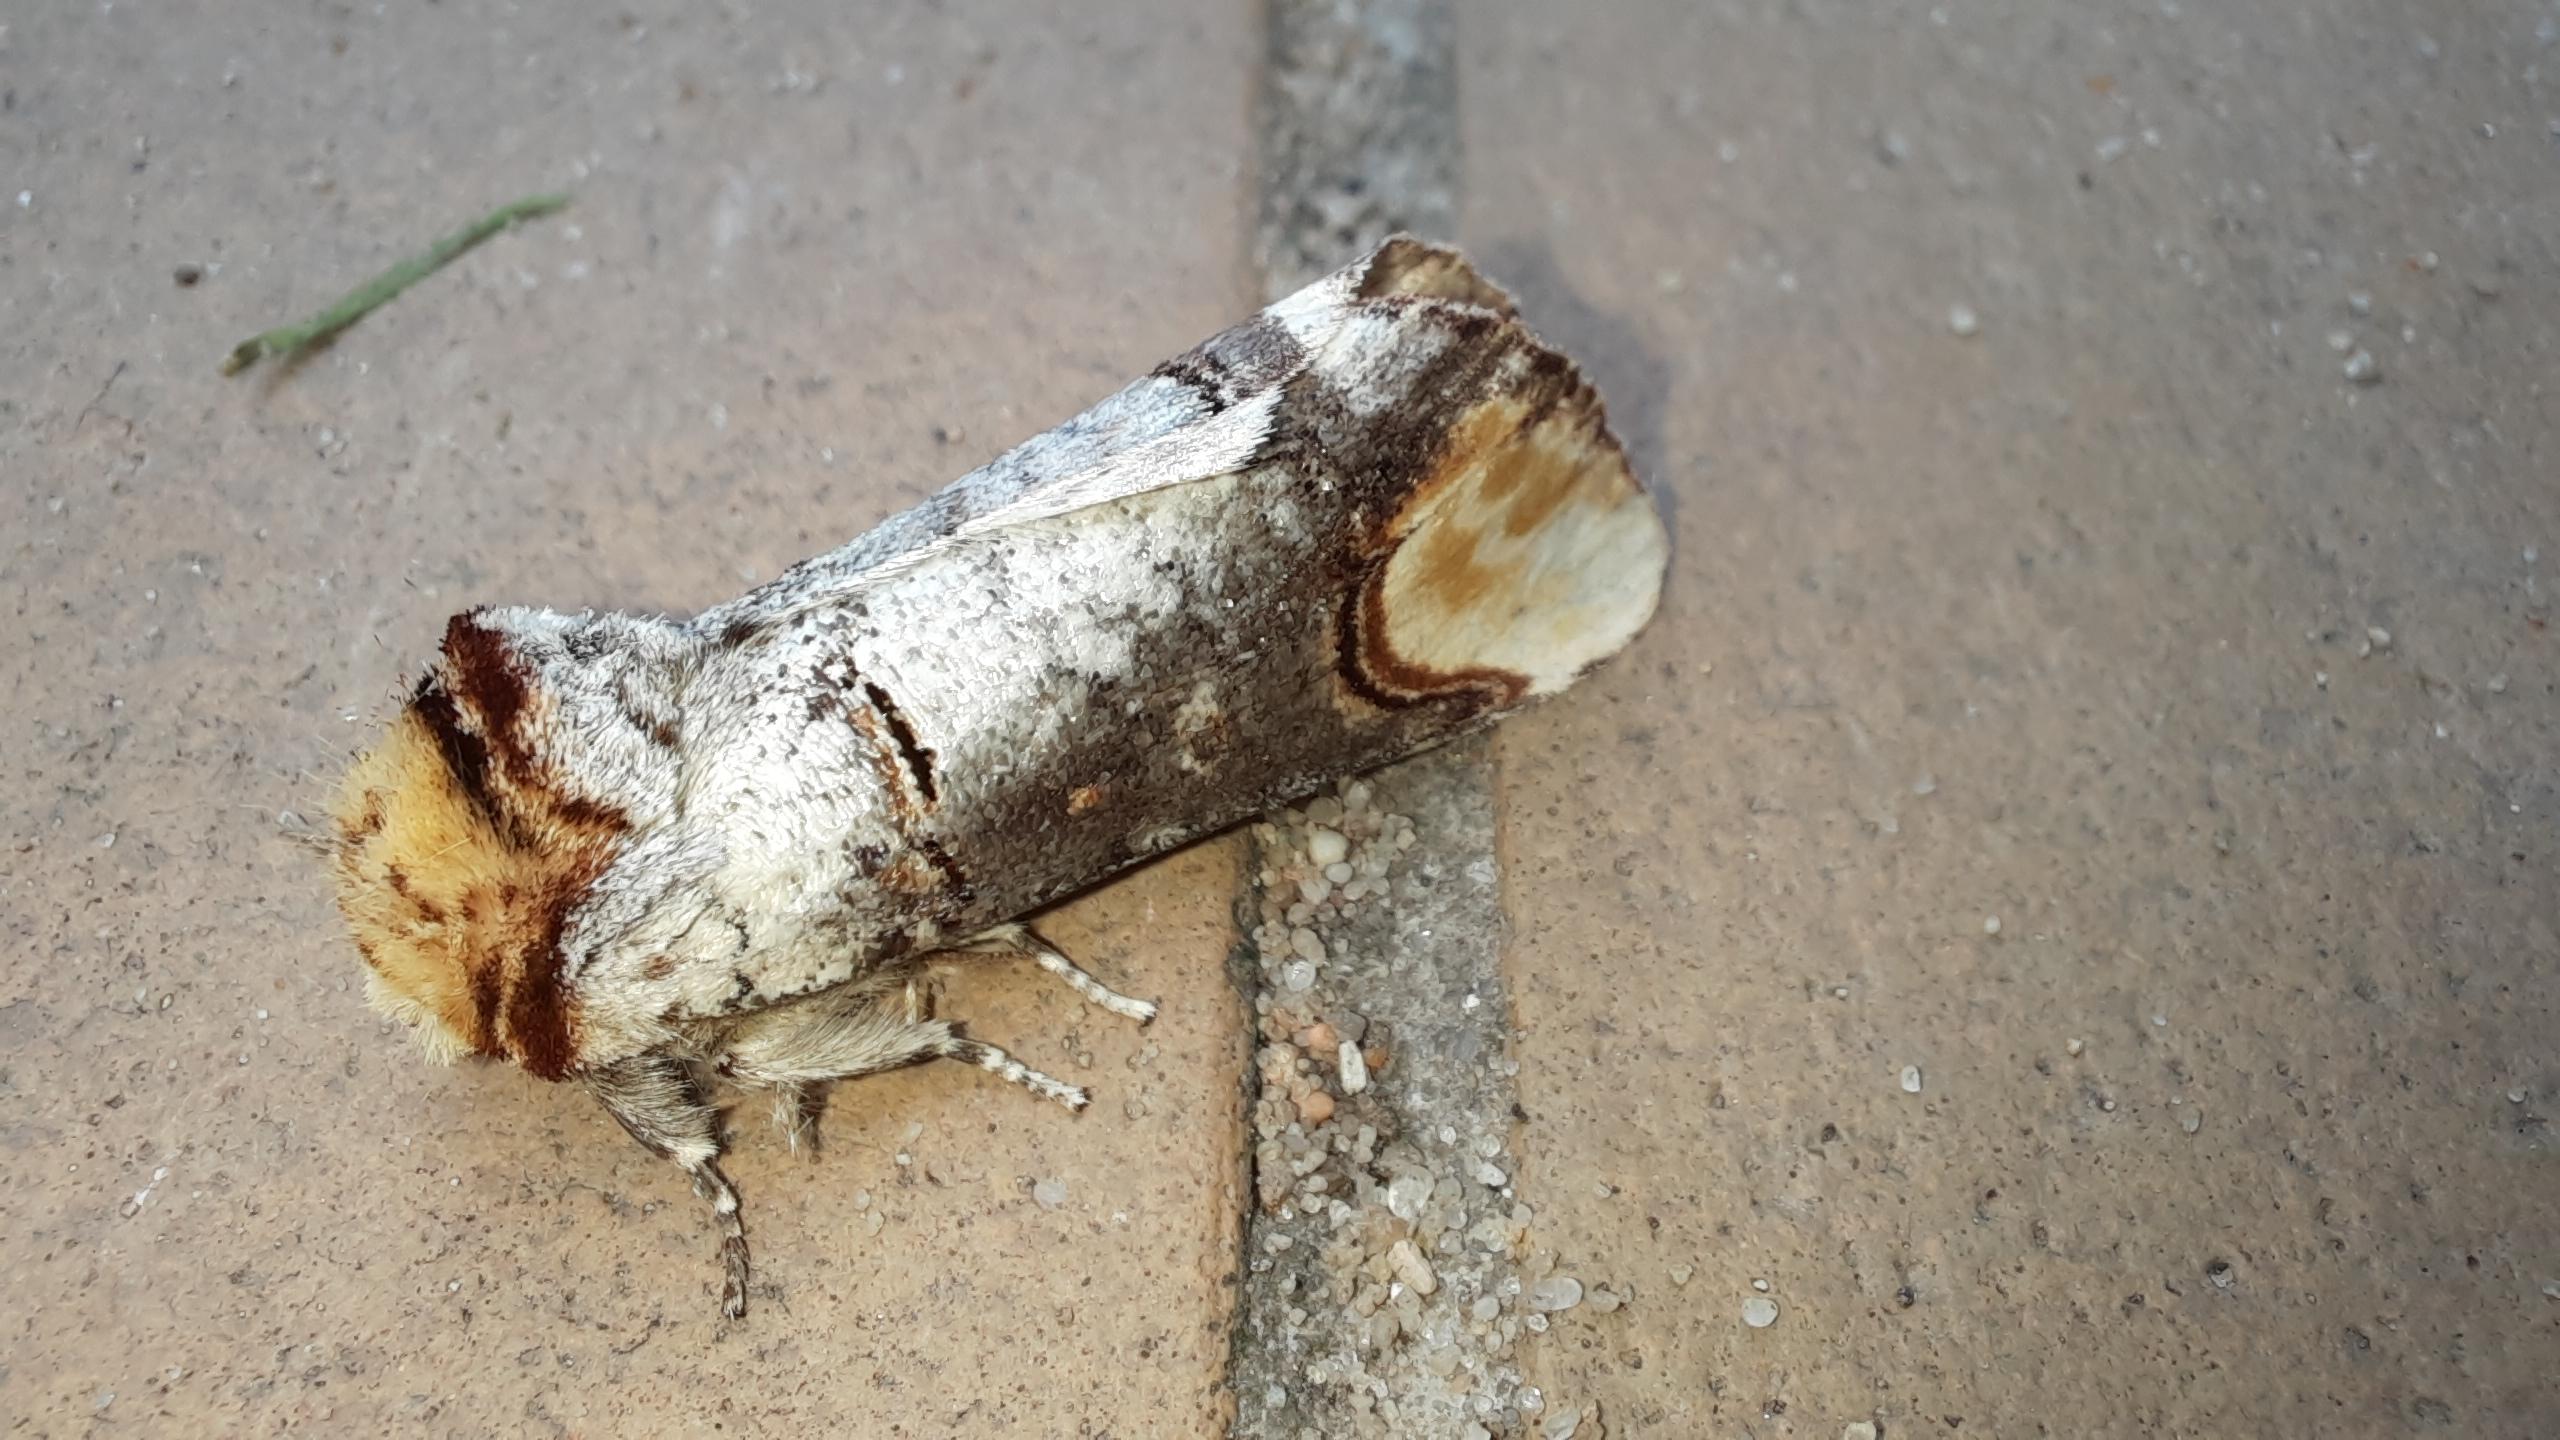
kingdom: Animalia
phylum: Arthropoda
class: Insecta
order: Lepidoptera
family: Notodontidae
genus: Phalera
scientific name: Phalera bucephala
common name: Måneplet
